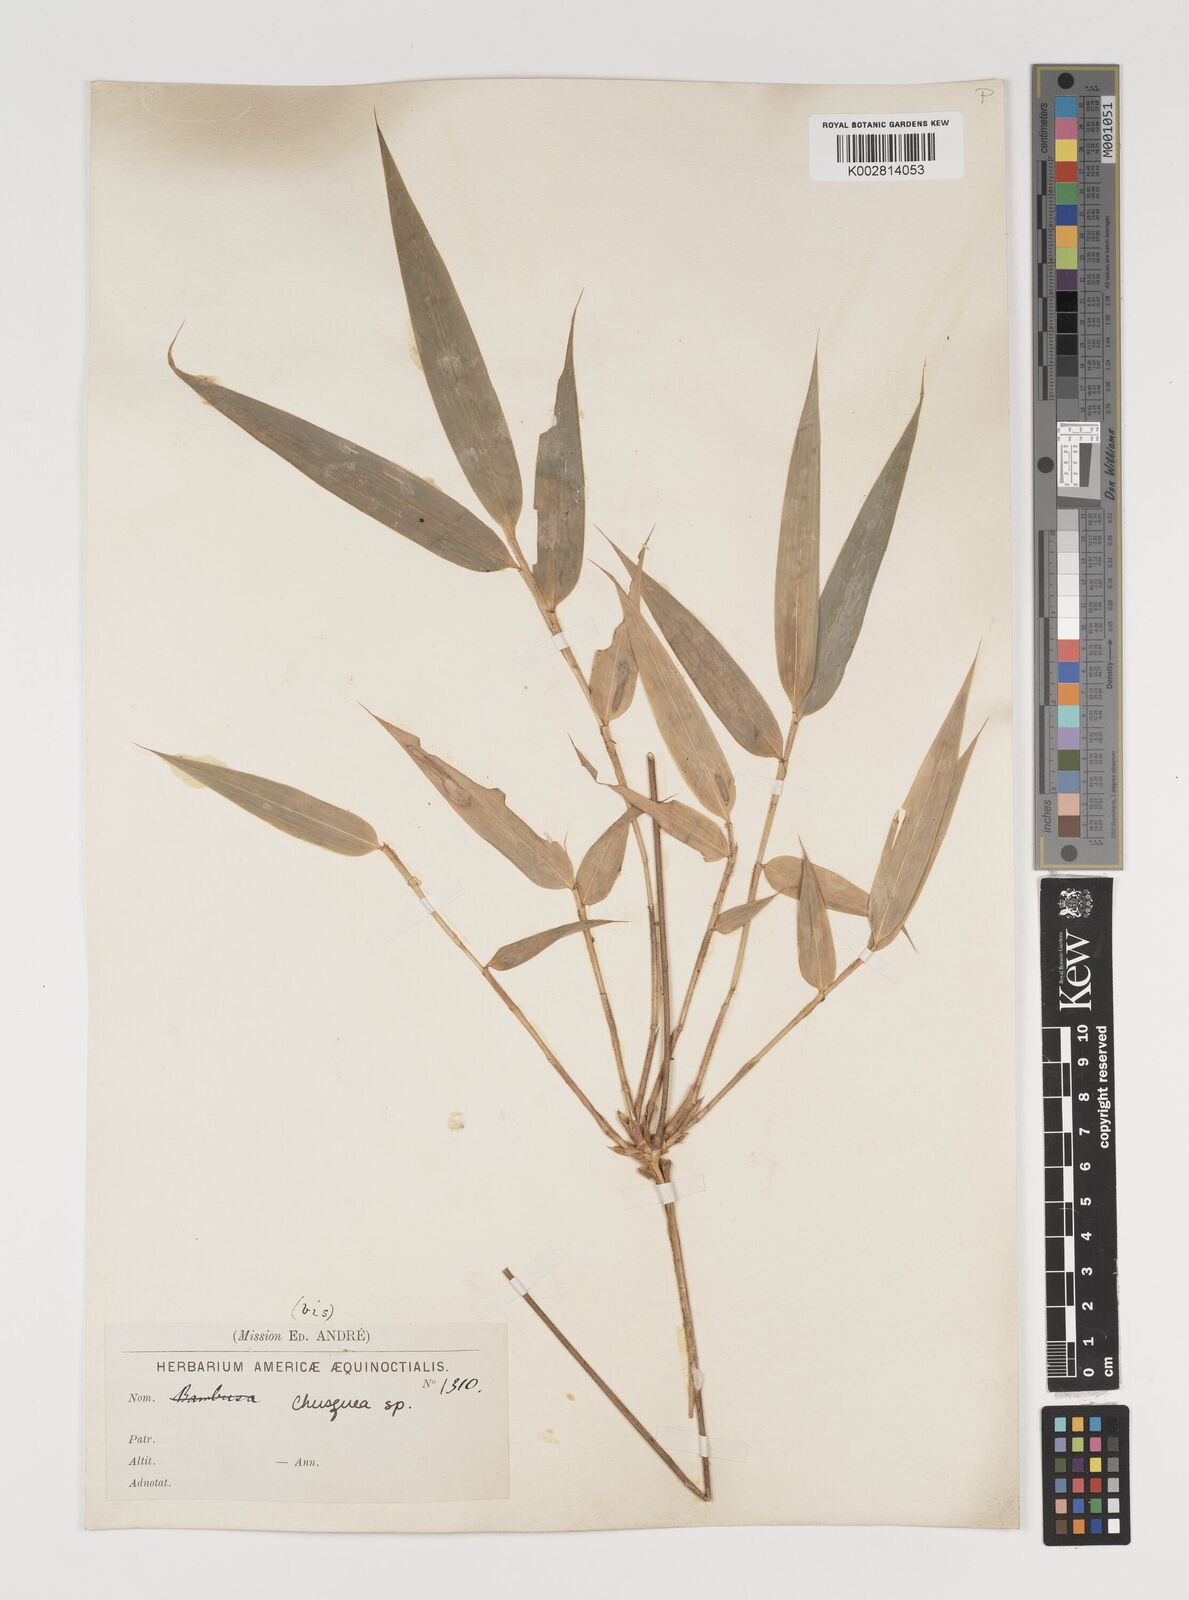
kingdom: Plantae
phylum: Tracheophyta
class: Liliopsida
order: Poales
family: Poaceae
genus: Chusquea
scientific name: Chusquea
